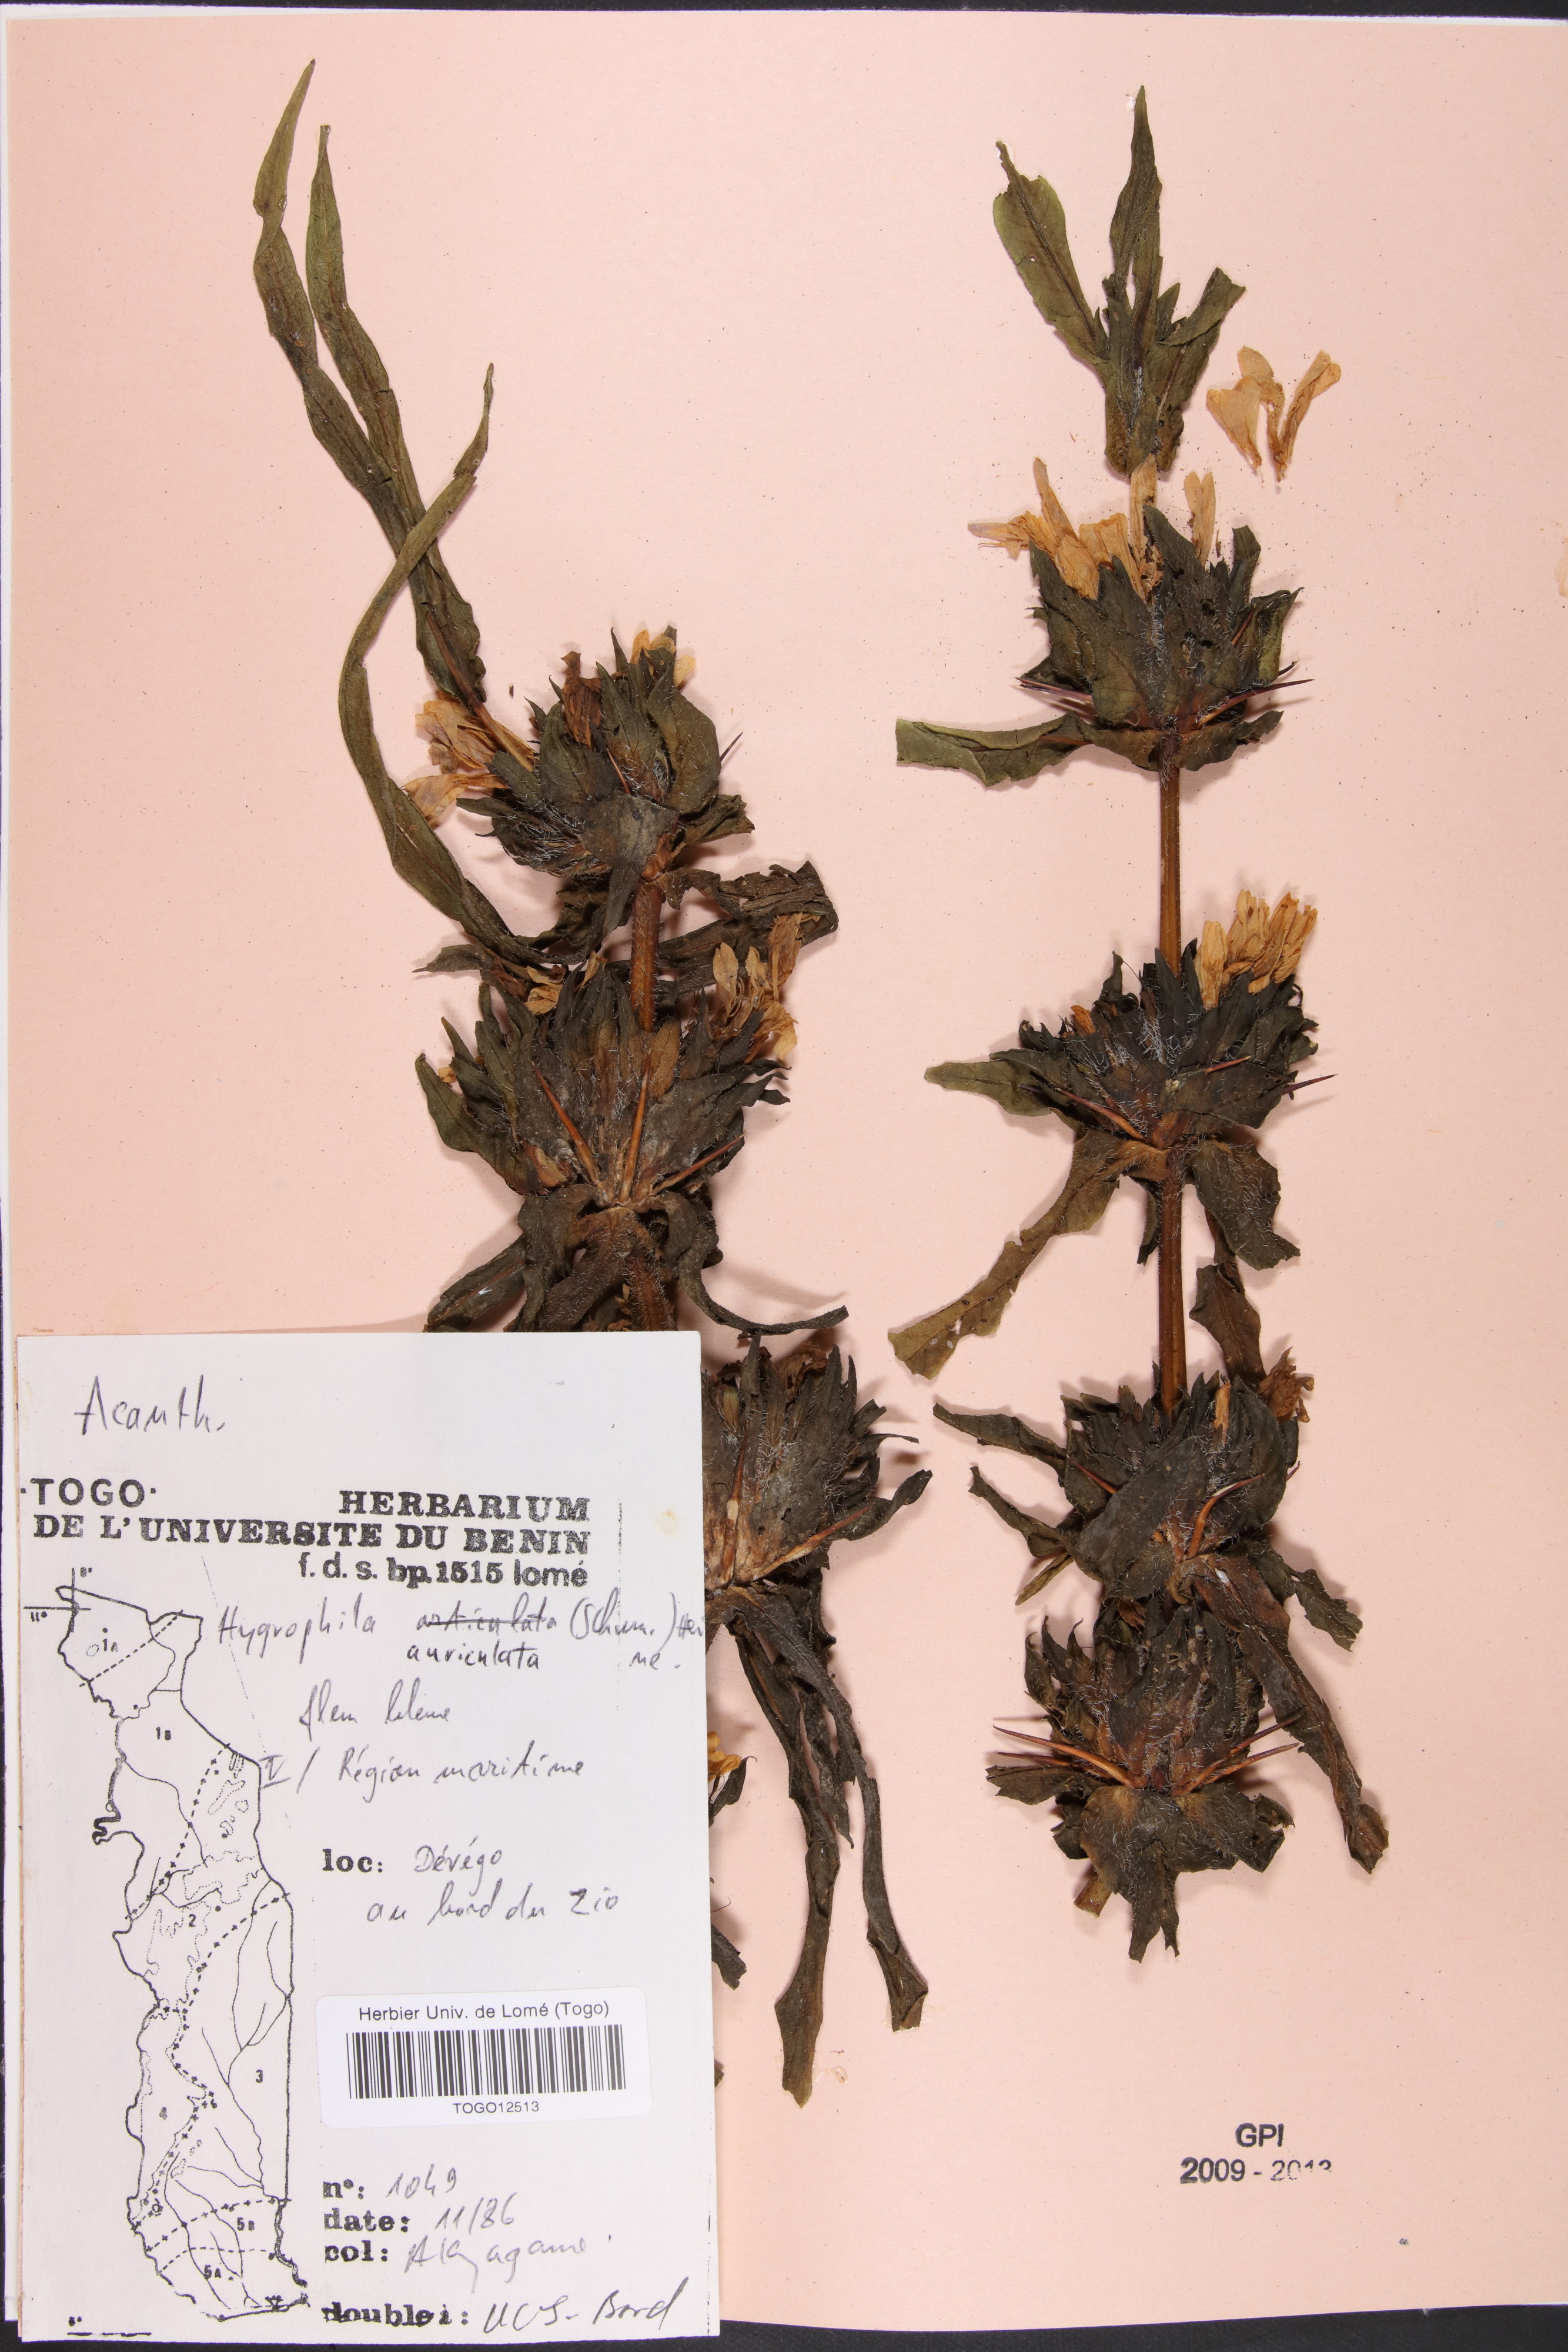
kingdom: Plantae
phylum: Tracheophyta
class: Magnoliopsida
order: Lamiales
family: Acanthaceae
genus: Hygrophila
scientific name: Hygrophila auriculata
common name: Hygrophila
